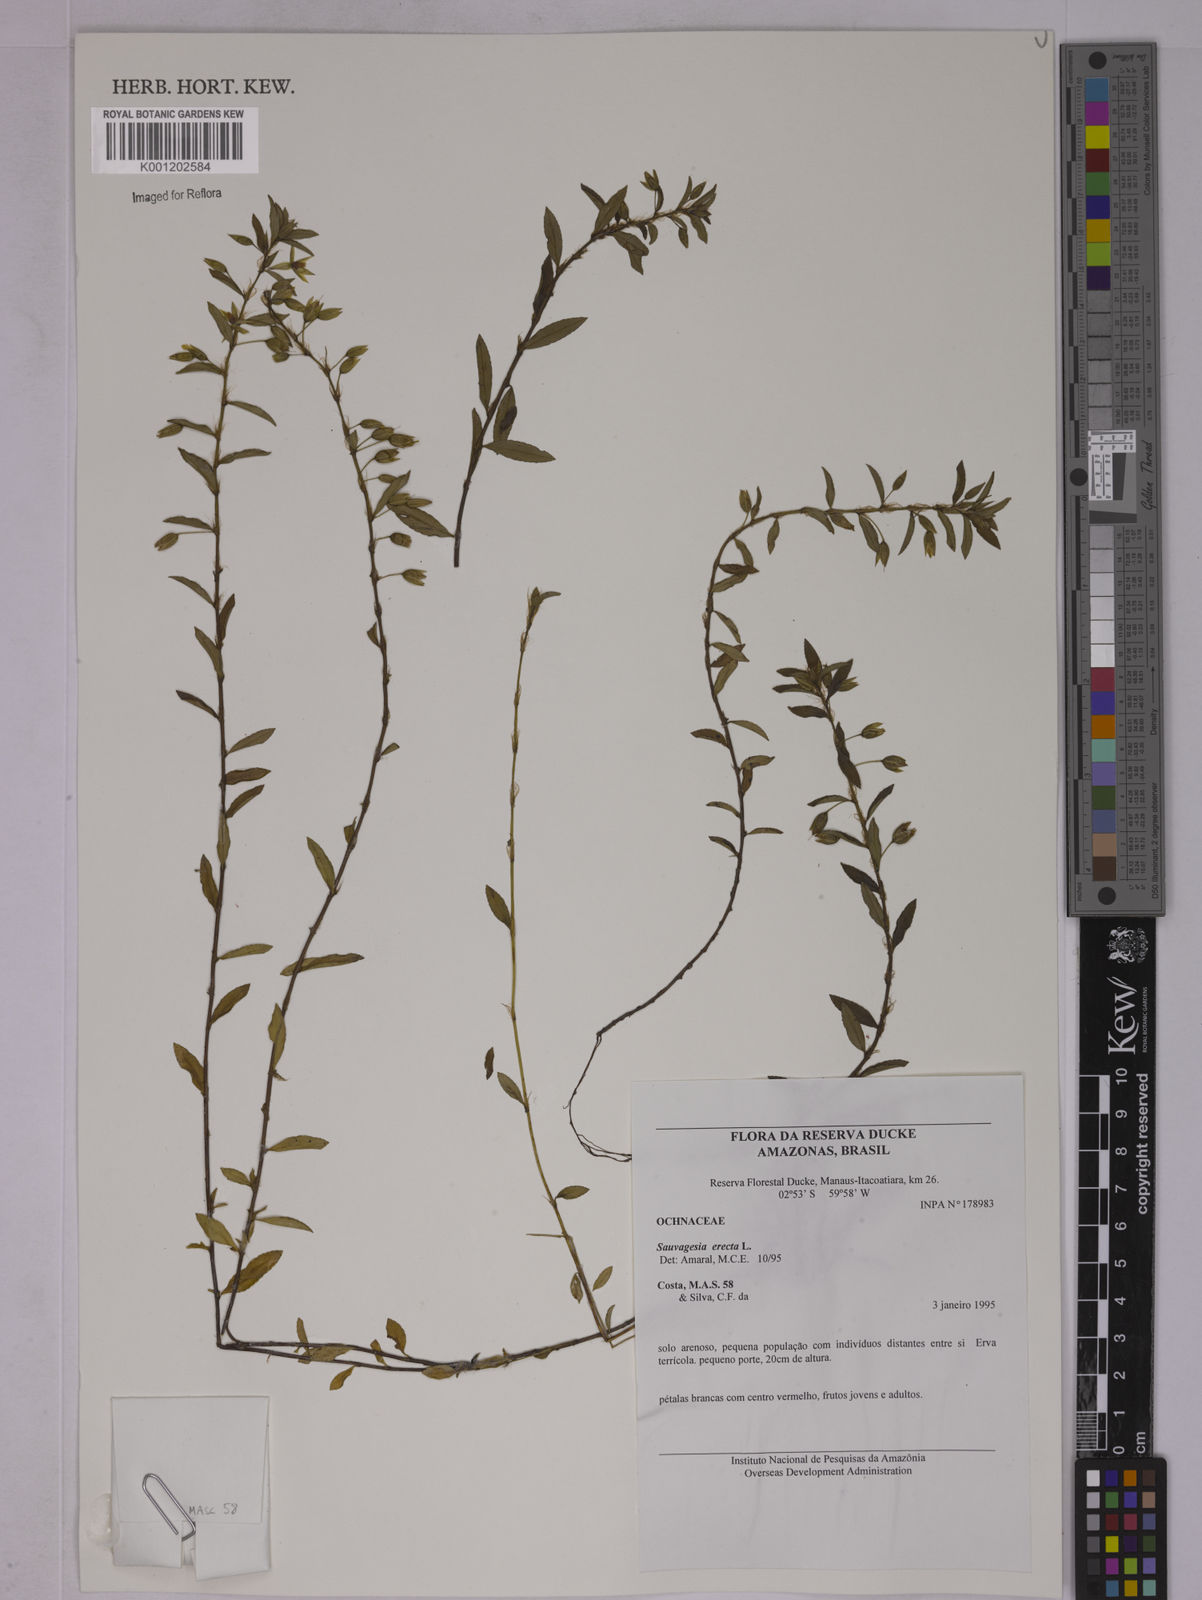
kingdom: Plantae
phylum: Tracheophyta
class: Magnoliopsida
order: Malpighiales
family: Ochnaceae
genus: Sauvagesia
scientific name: Sauvagesia erecta
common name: Creole tea
